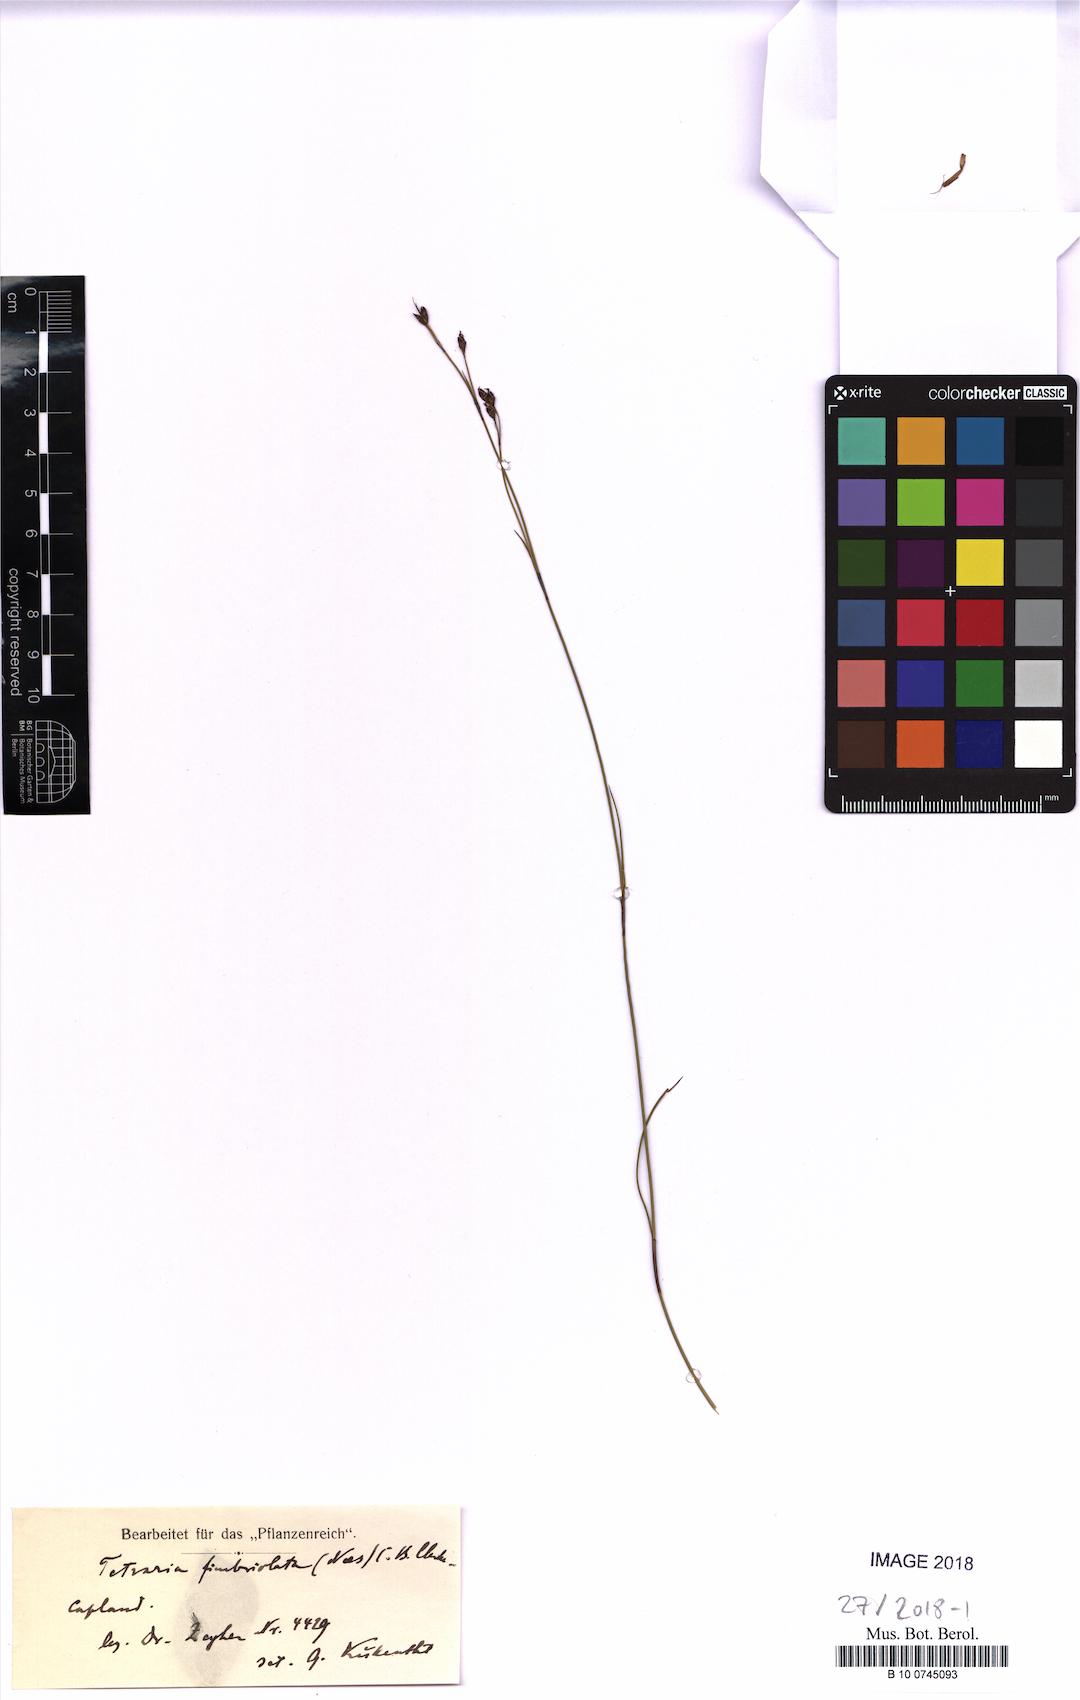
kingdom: Plantae
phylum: Tracheophyta
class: Liliopsida
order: Poales
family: Cyperaceae
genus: Tetraria
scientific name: Tetraria fimbriolata
